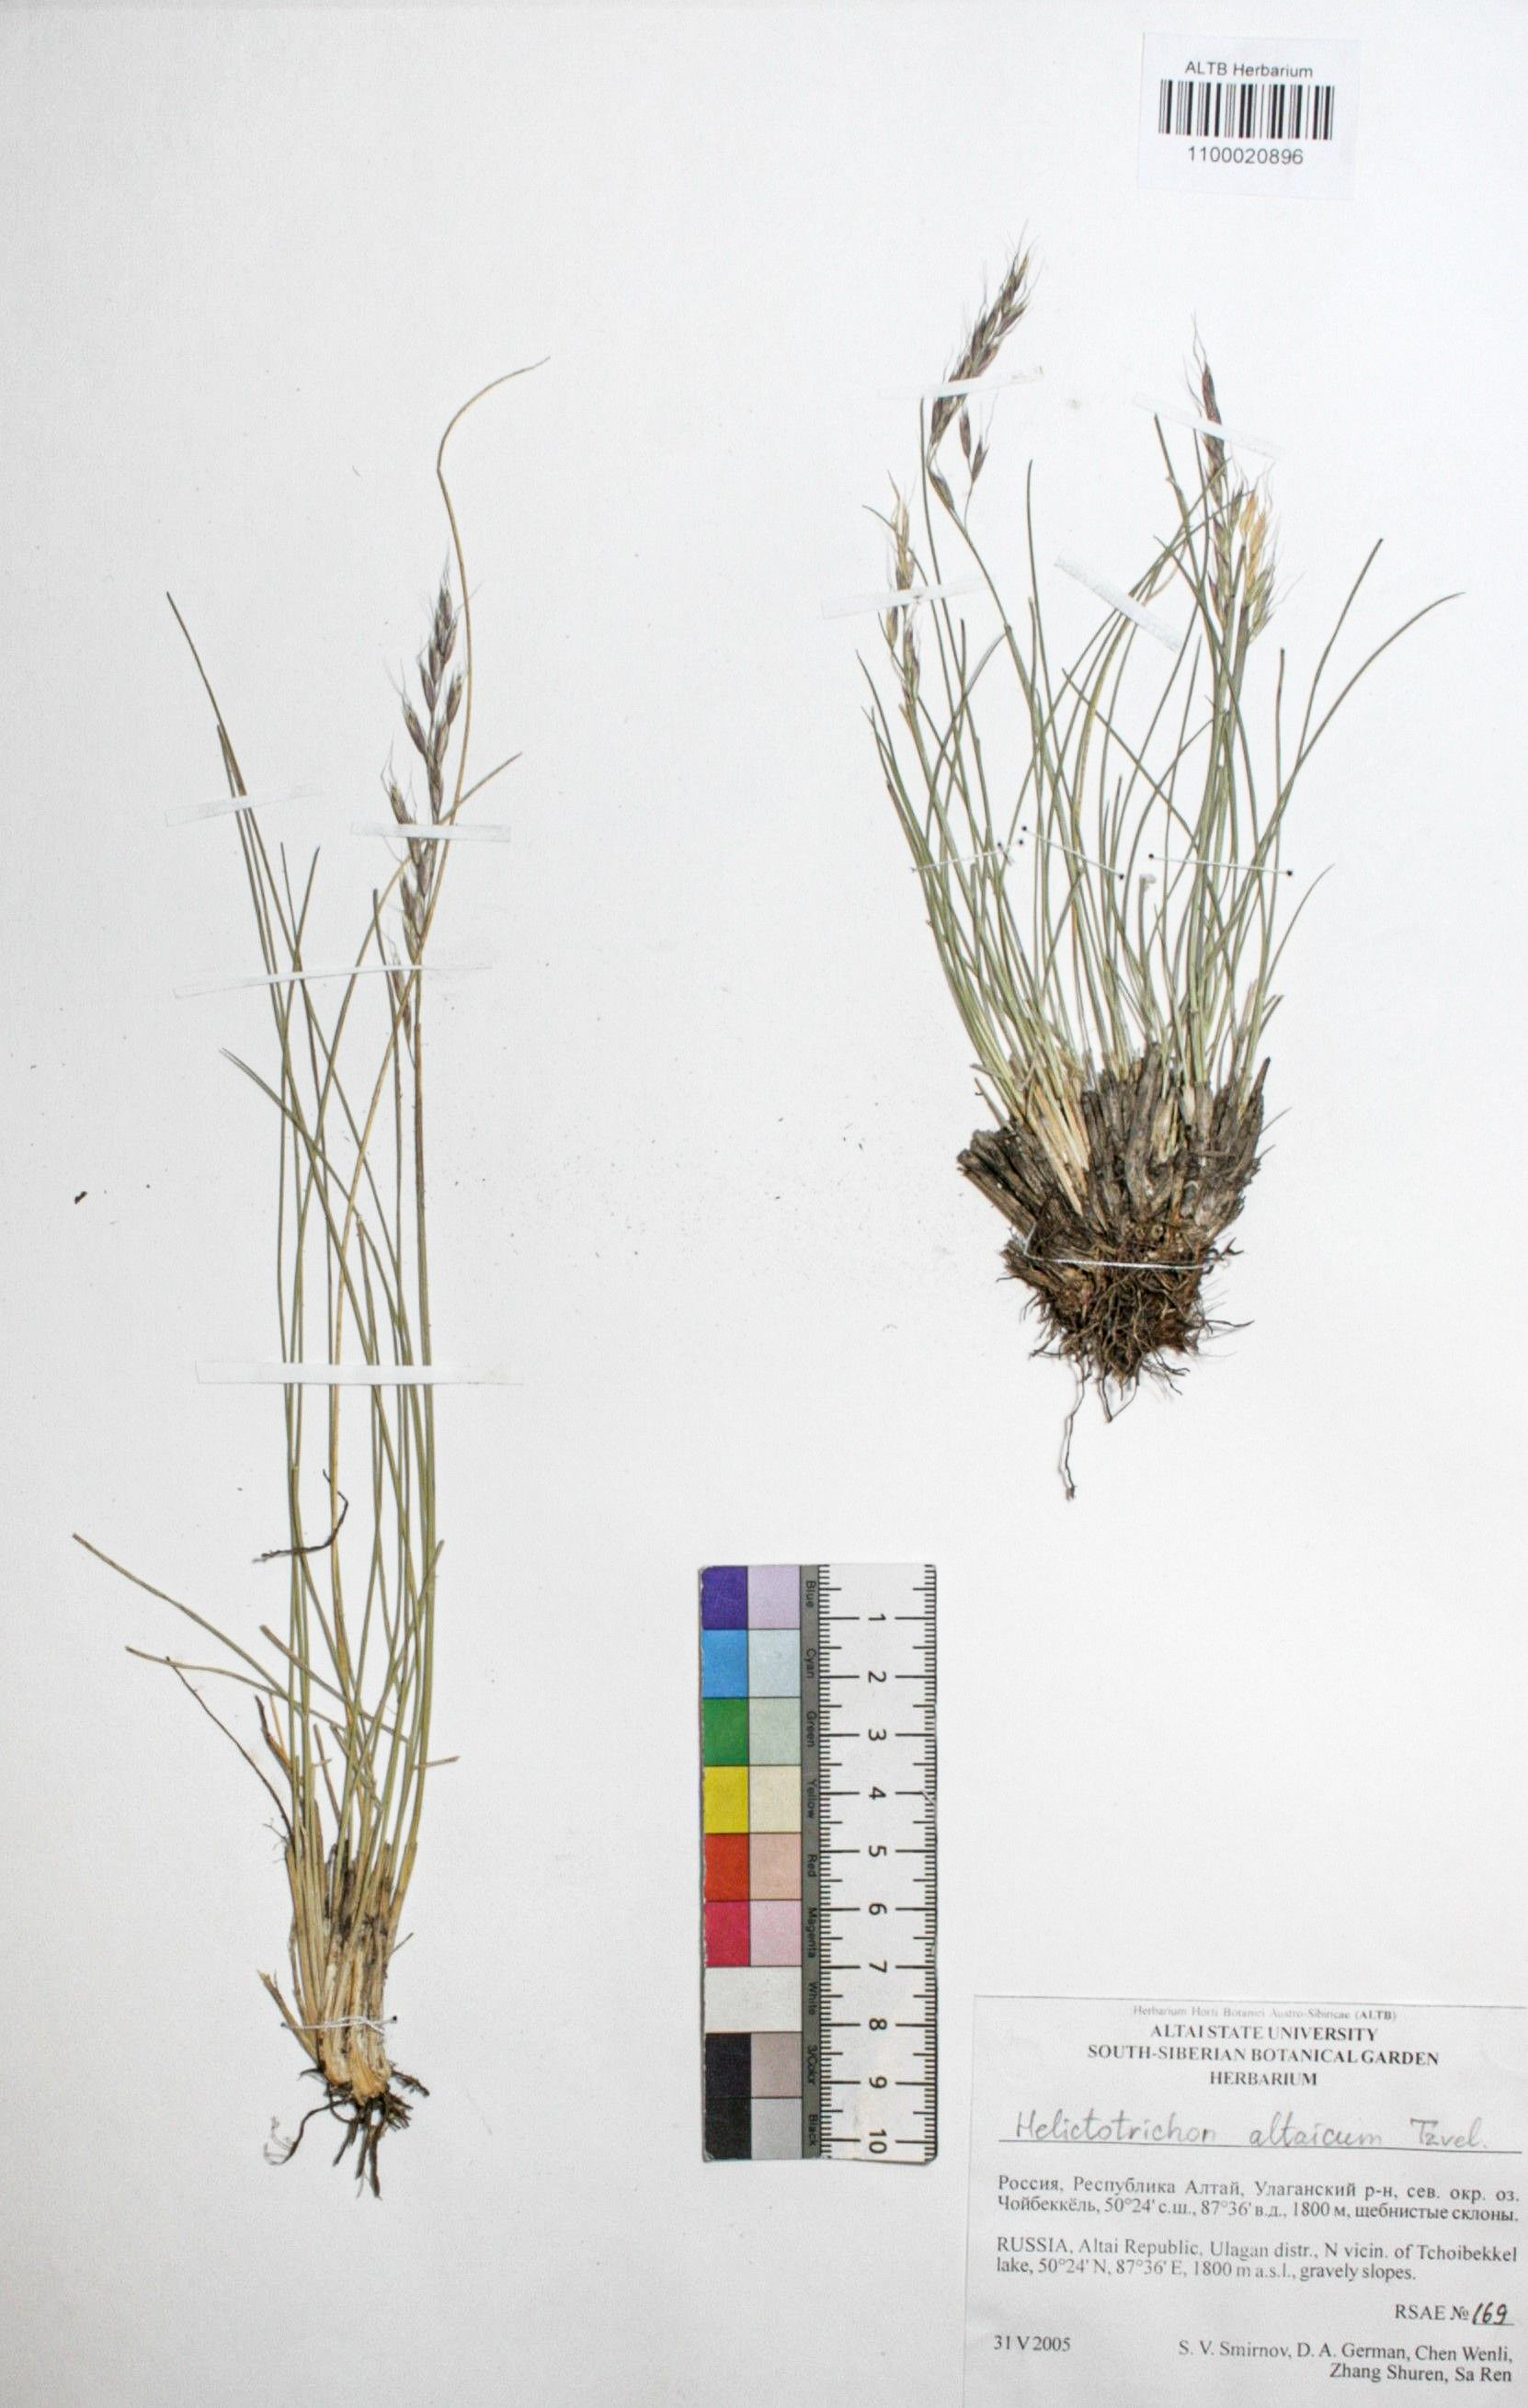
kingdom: Plantae
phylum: Tracheophyta
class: Liliopsida
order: Poales
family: Poaceae
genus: Helictotrichon
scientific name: Helictotrichon desertorum
